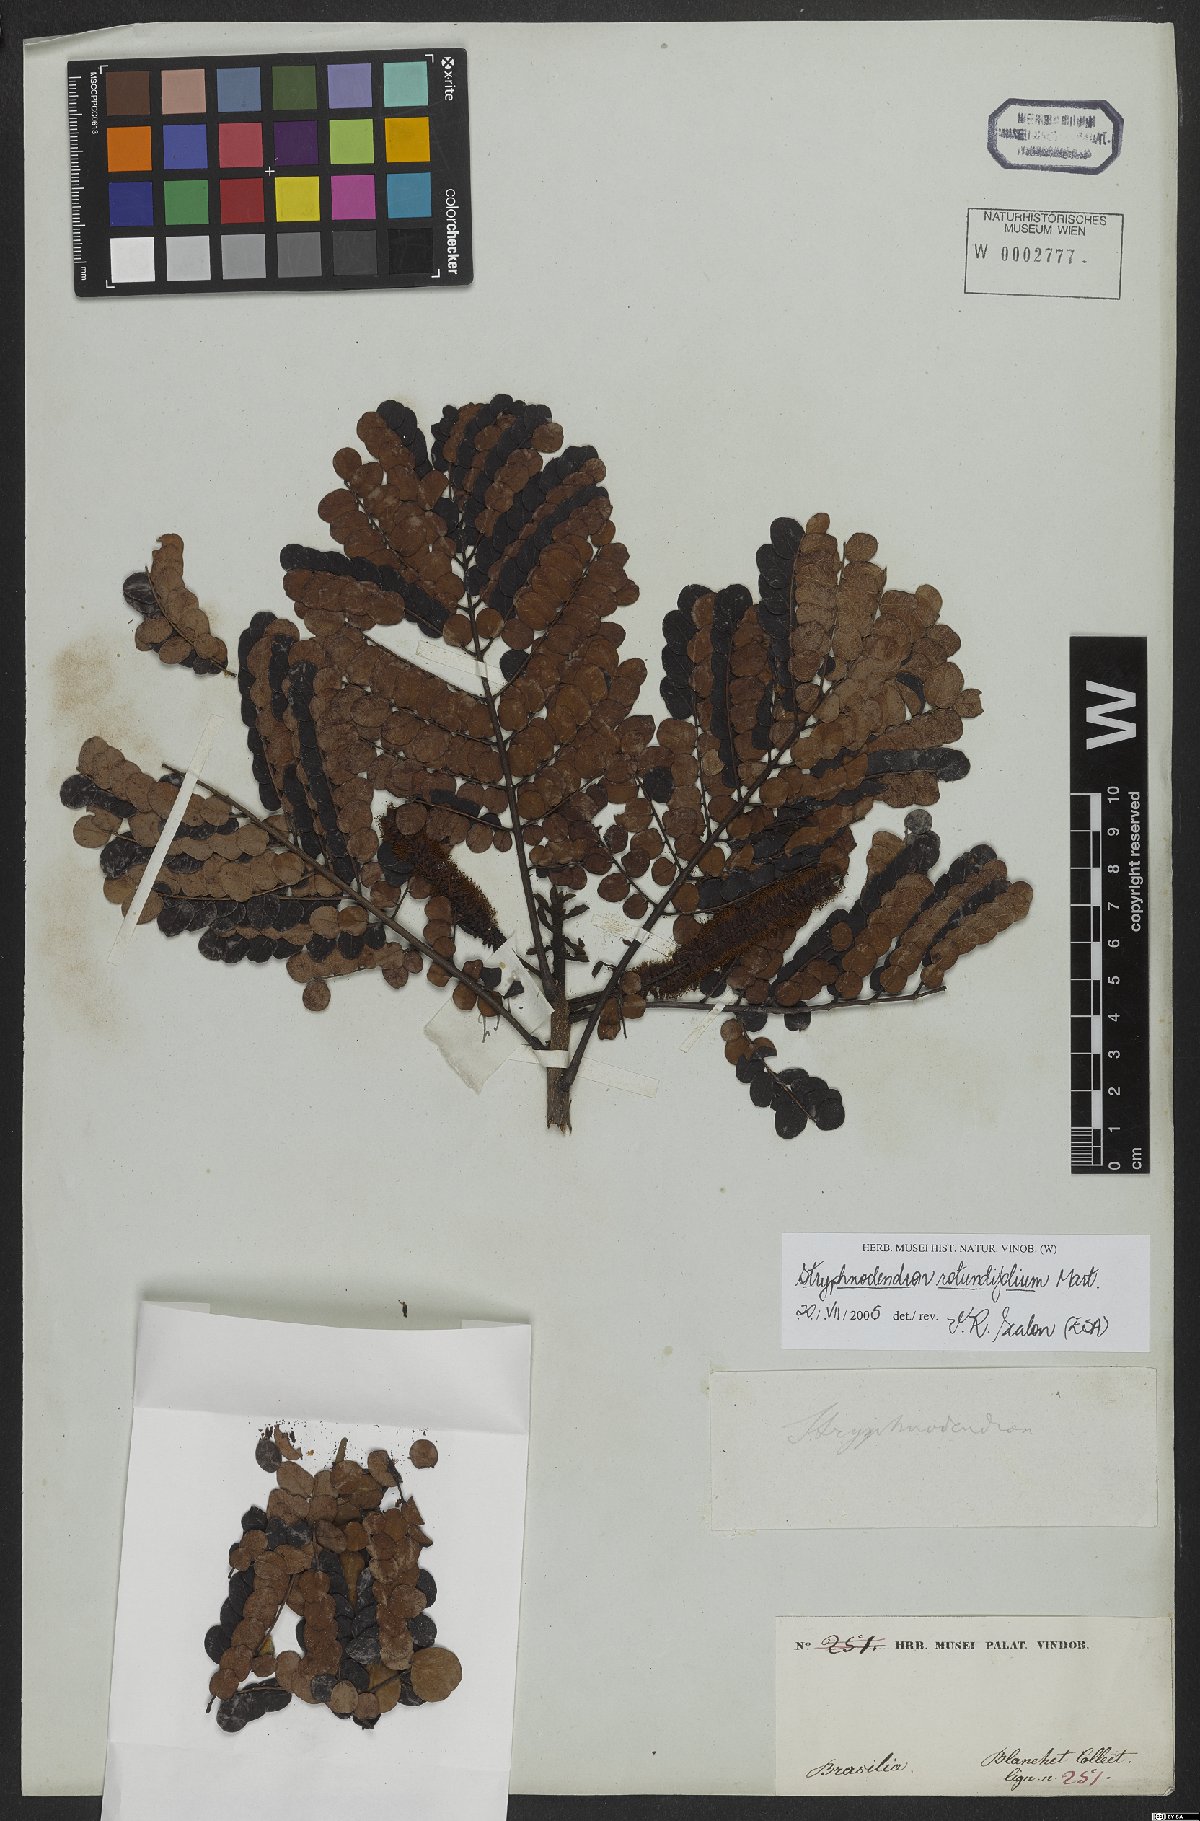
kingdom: Plantae
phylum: Tracheophyta
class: Magnoliopsida
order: Fabales
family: Fabaceae
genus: Stryphnodendron
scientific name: Stryphnodendron rotundifolium
